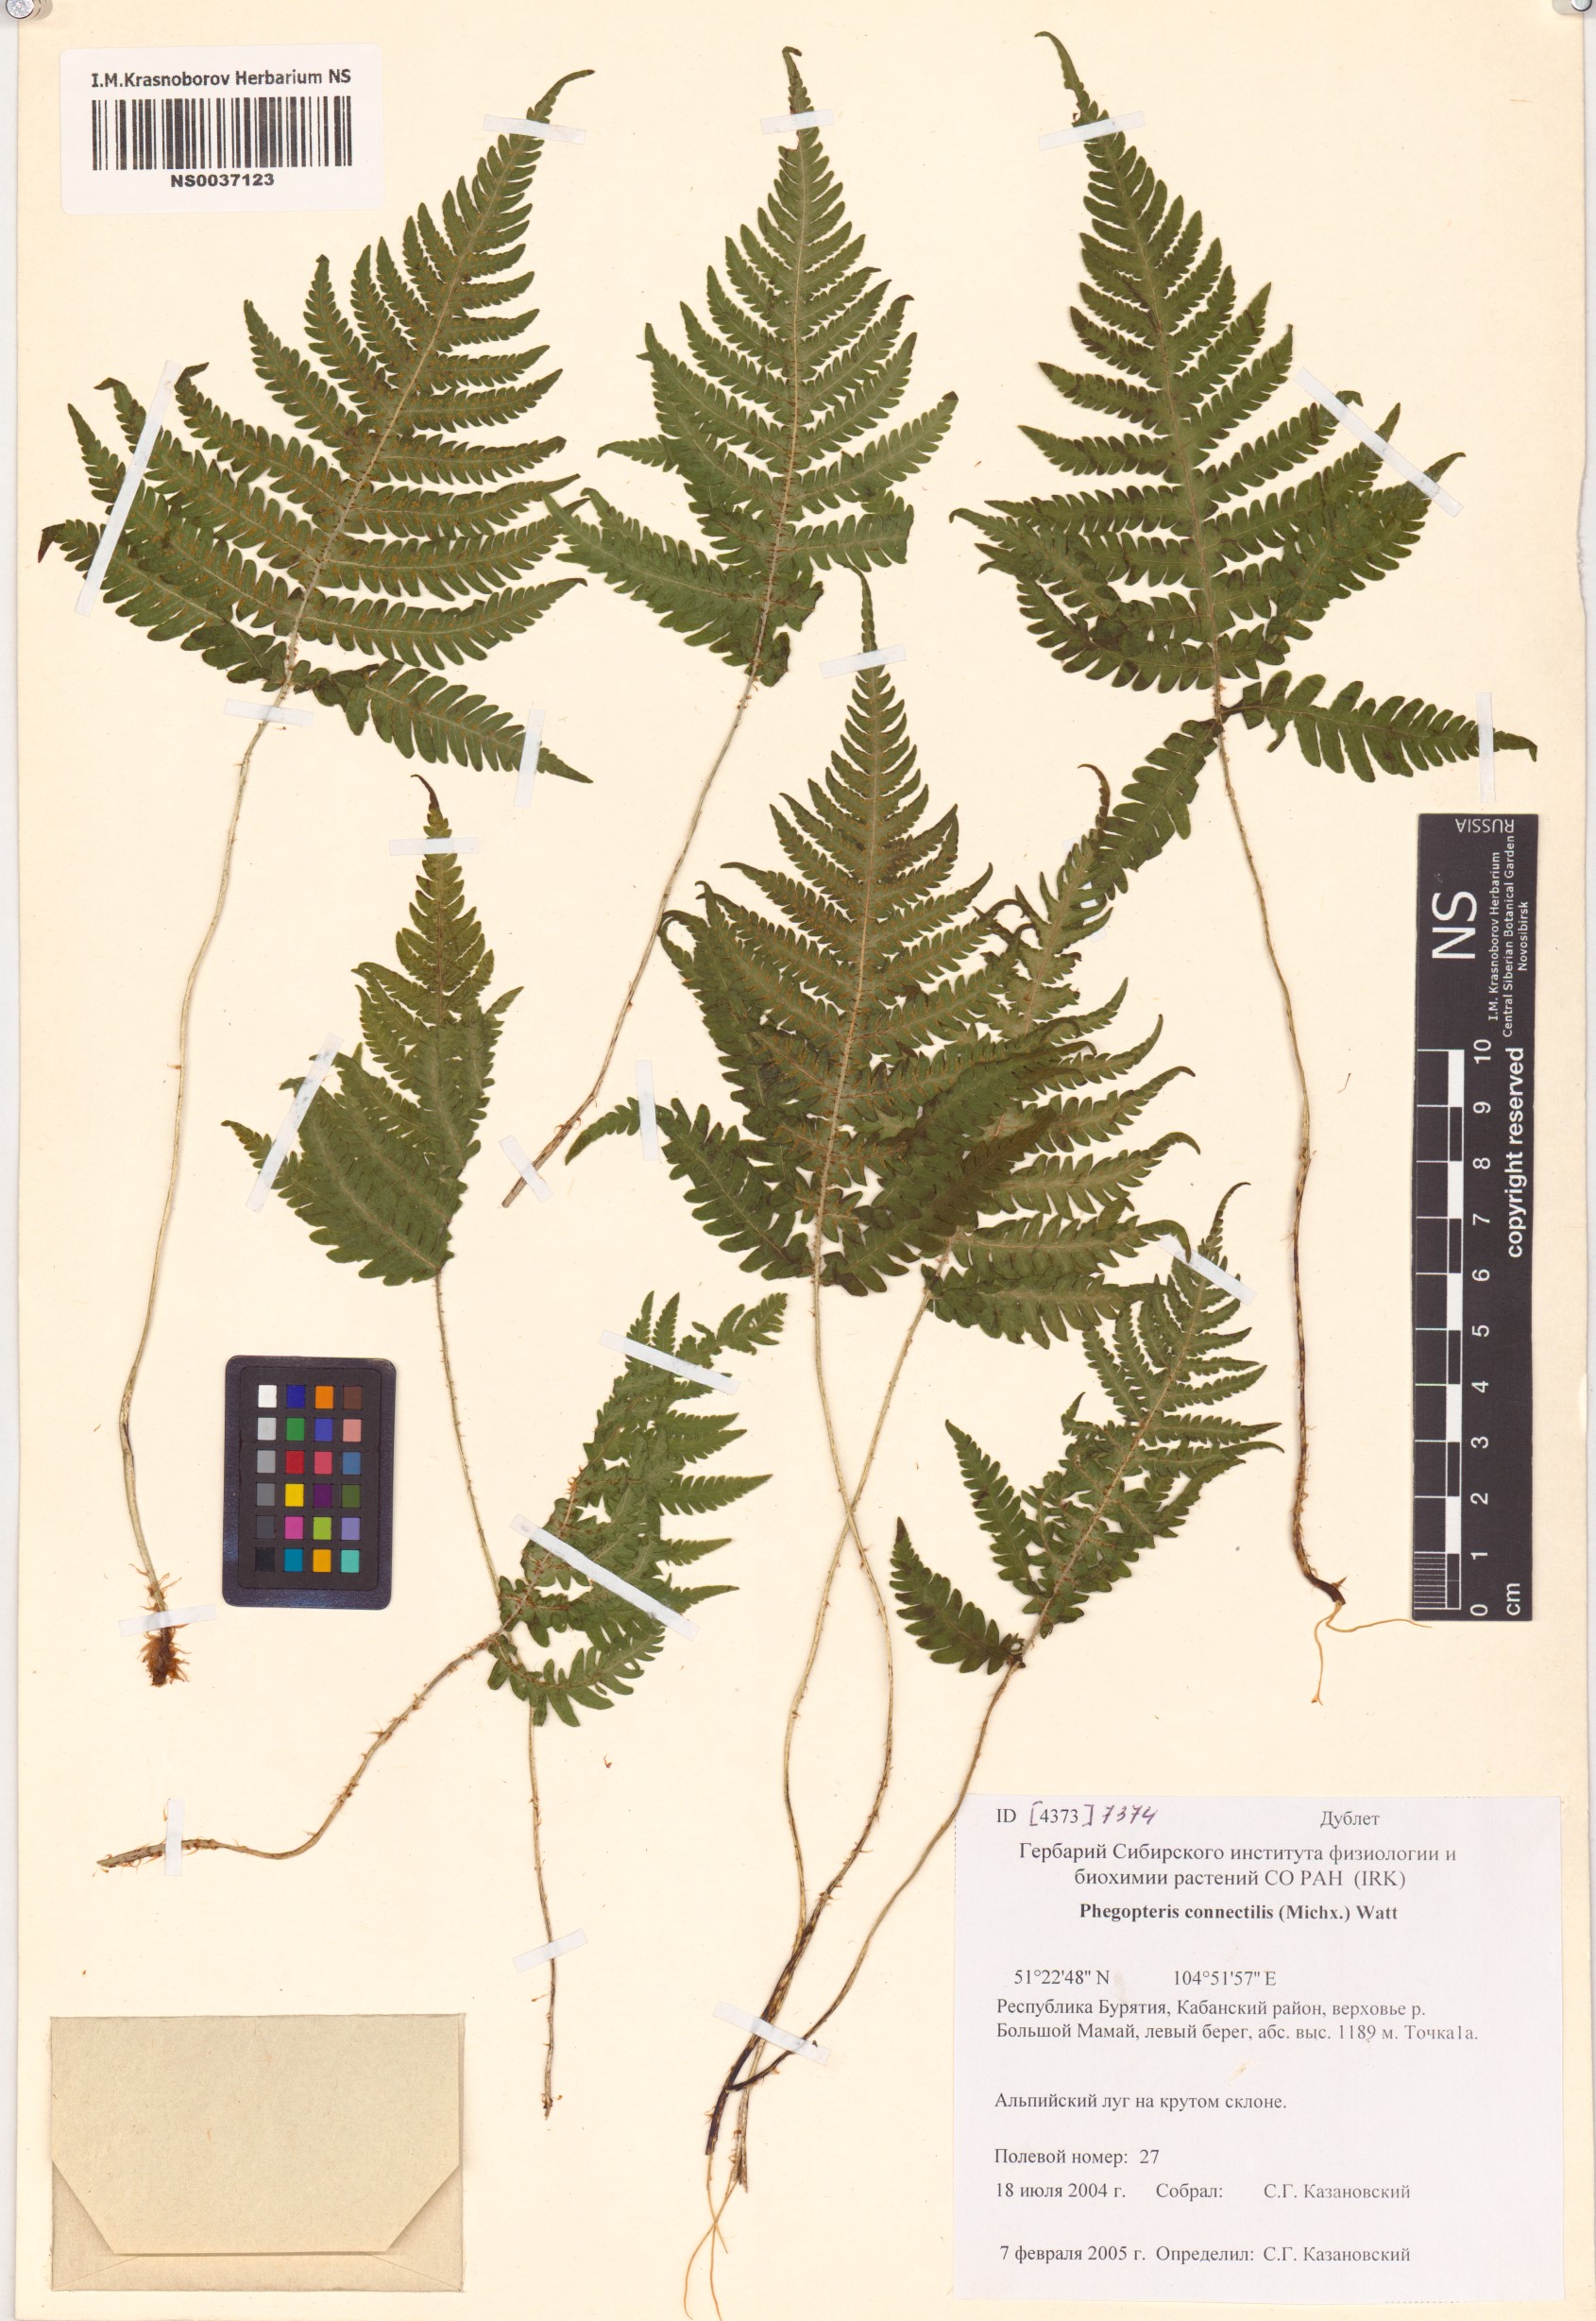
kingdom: Plantae
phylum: Tracheophyta
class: Polypodiopsida
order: Polypodiales
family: Thelypteridaceae
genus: Phegopteris
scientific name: Phegopteris connectilis
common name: Beech fern
